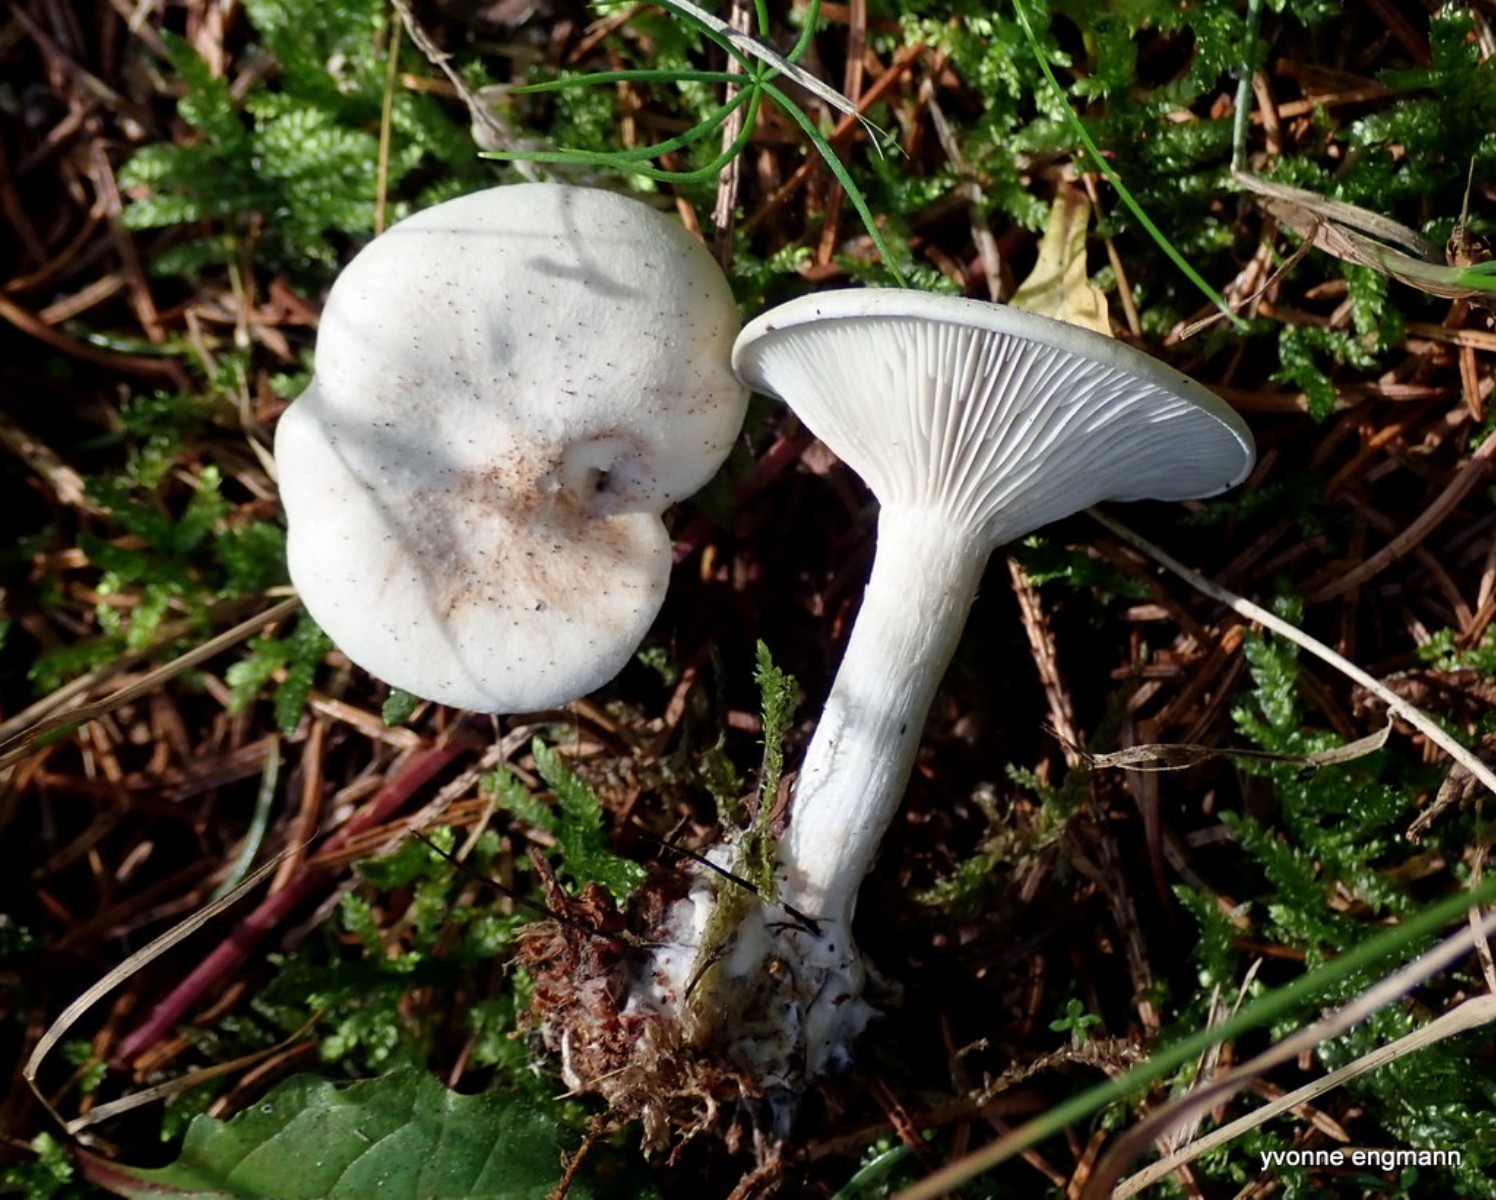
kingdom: Fungi
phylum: Basidiomycota
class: Agaricomycetes
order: Agaricales
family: Tricholomataceae
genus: Clitocybe
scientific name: Clitocybe odora
